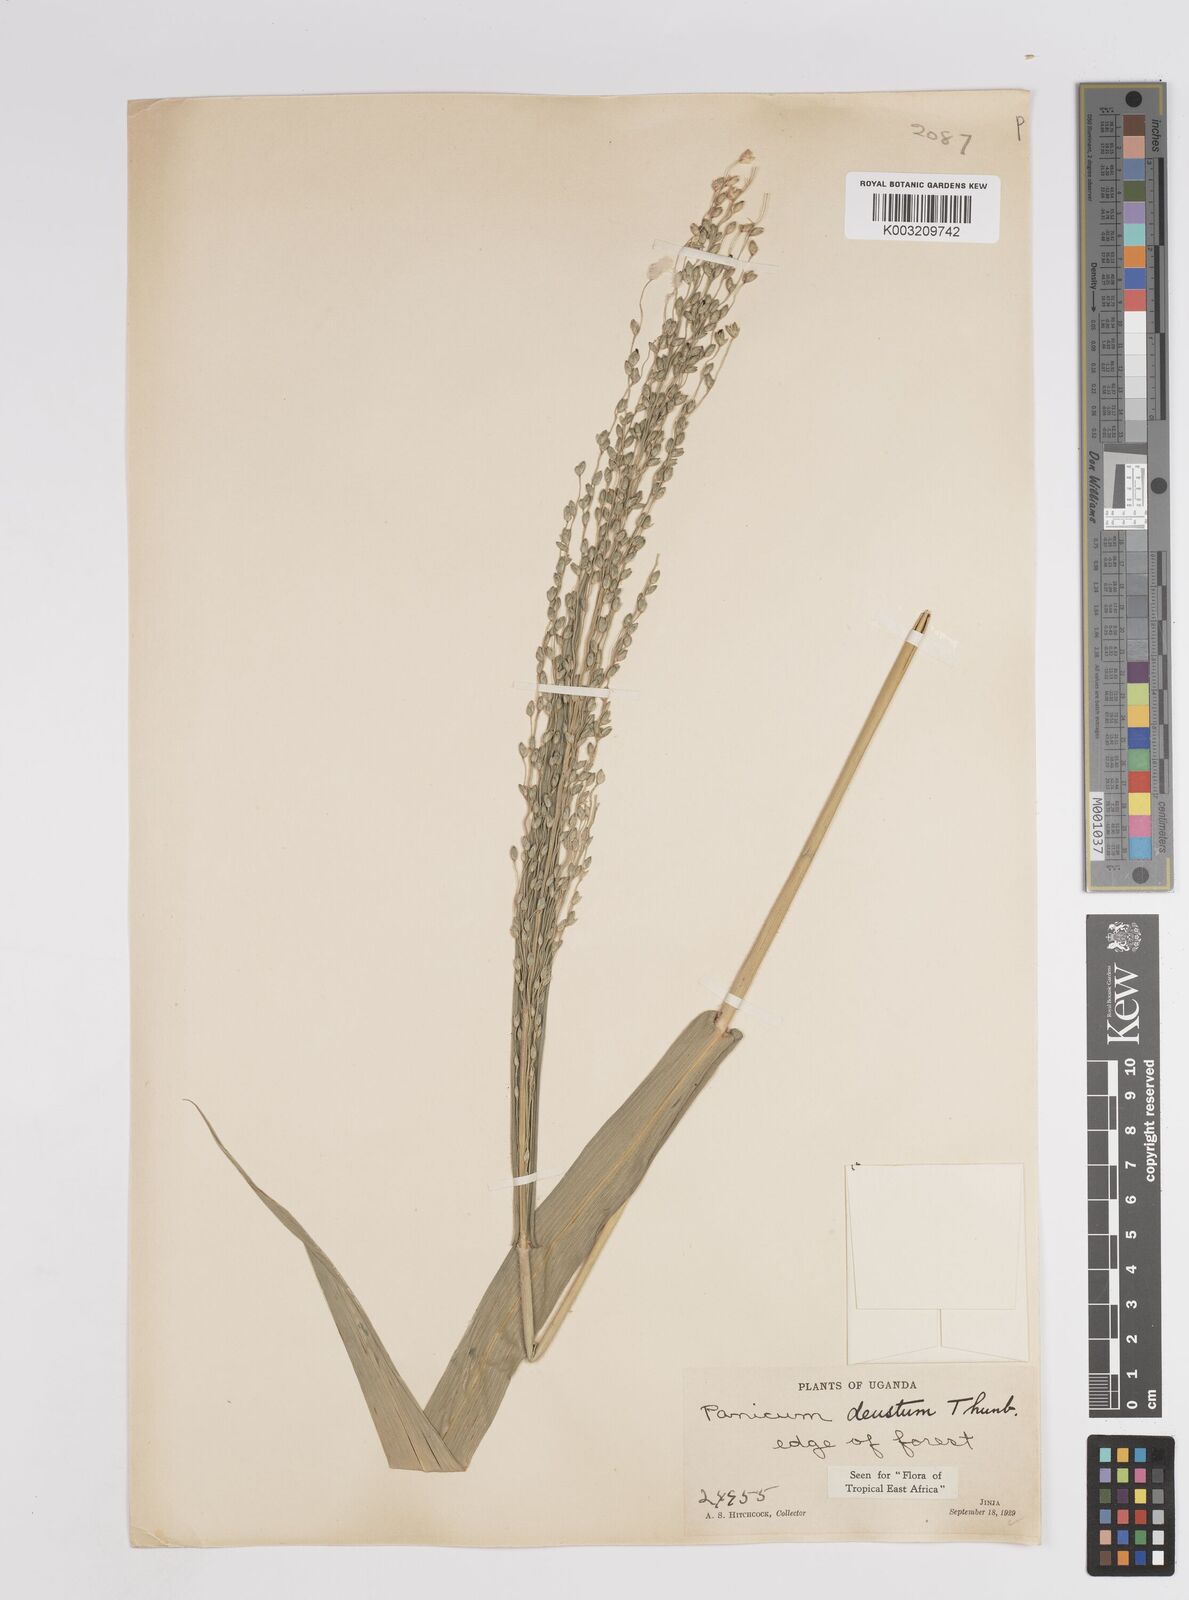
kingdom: Plantae
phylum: Tracheophyta
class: Liliopsida
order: Poales
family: Poaceae
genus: Panicum
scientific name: Panicum
